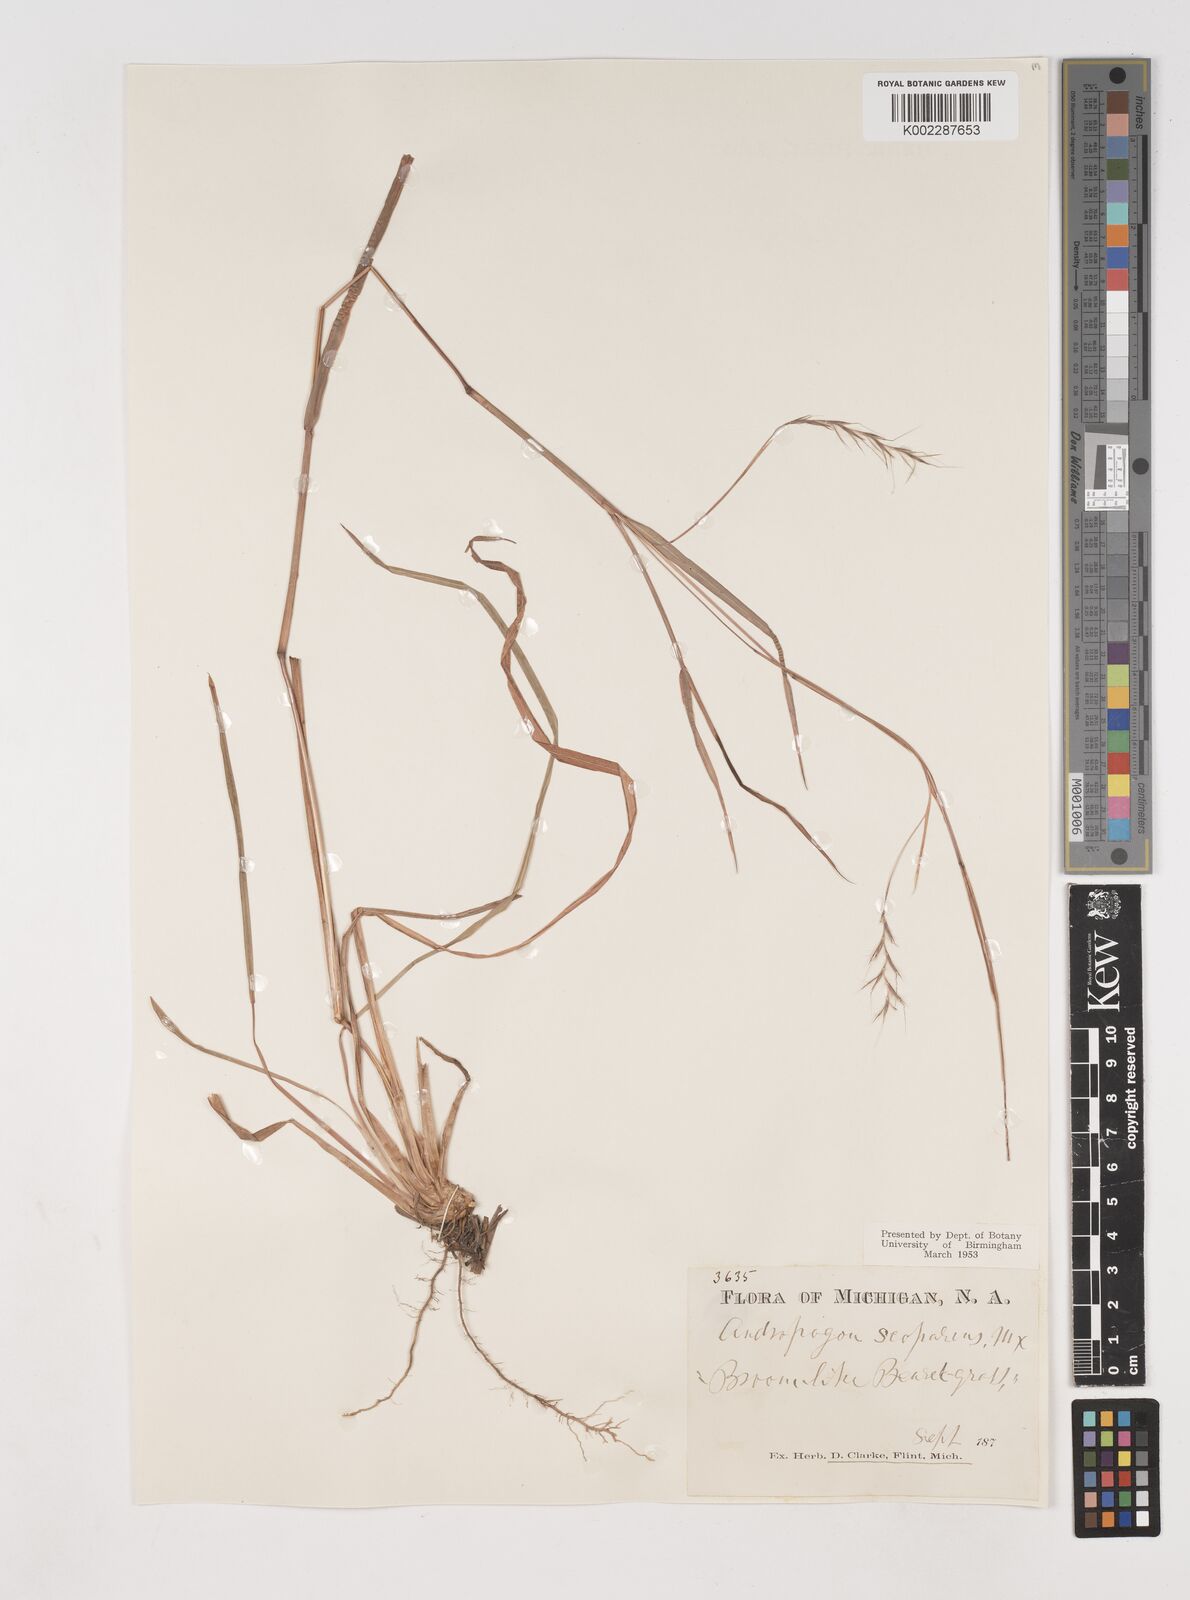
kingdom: Plantae
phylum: Tracheophyta
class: Liliopsida
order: Poales
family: Poaceae
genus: Schizachyrium
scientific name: Schizachyrium scoparium
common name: Little bluestem
